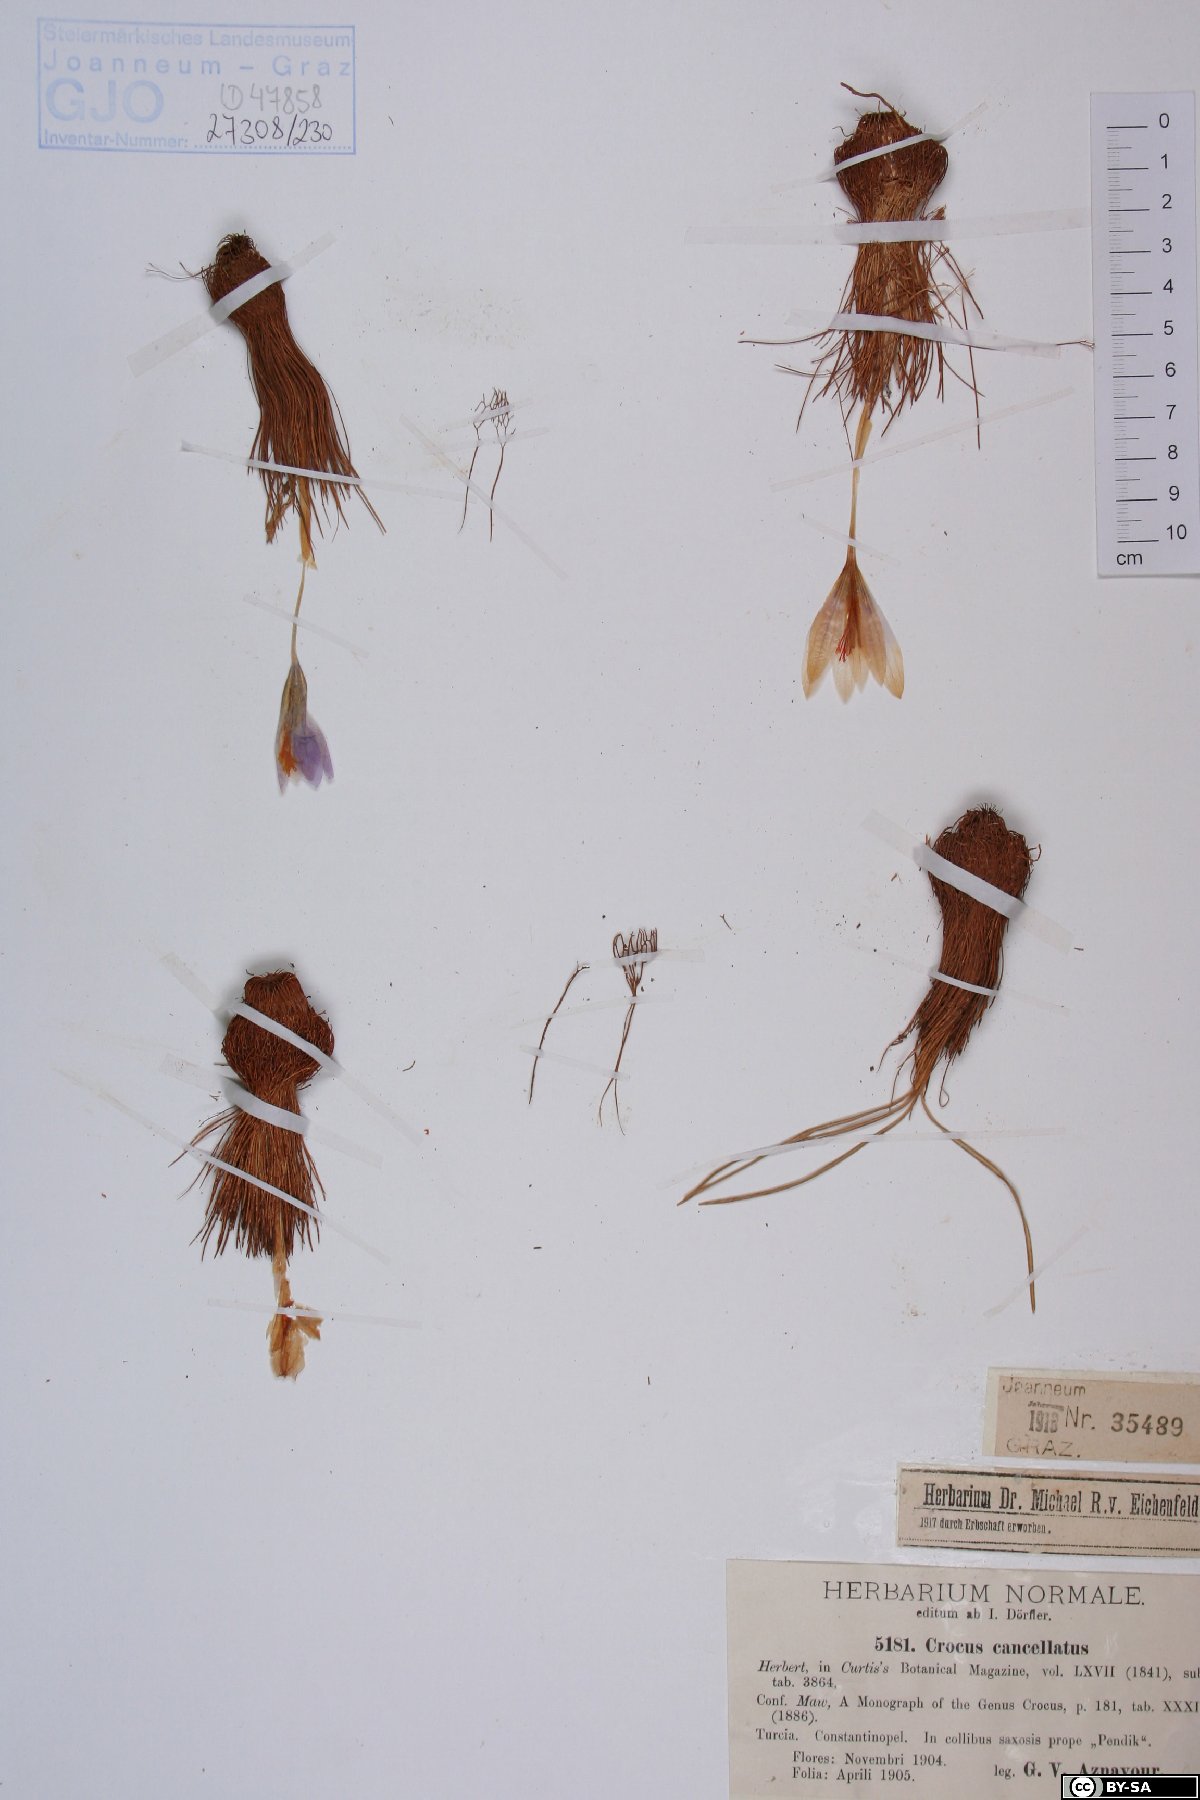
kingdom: Plantae
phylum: Tracheophyta
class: Liliopsida
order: Asparagales
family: Iridaceae
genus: Crocus
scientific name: Crocus cancellatus
